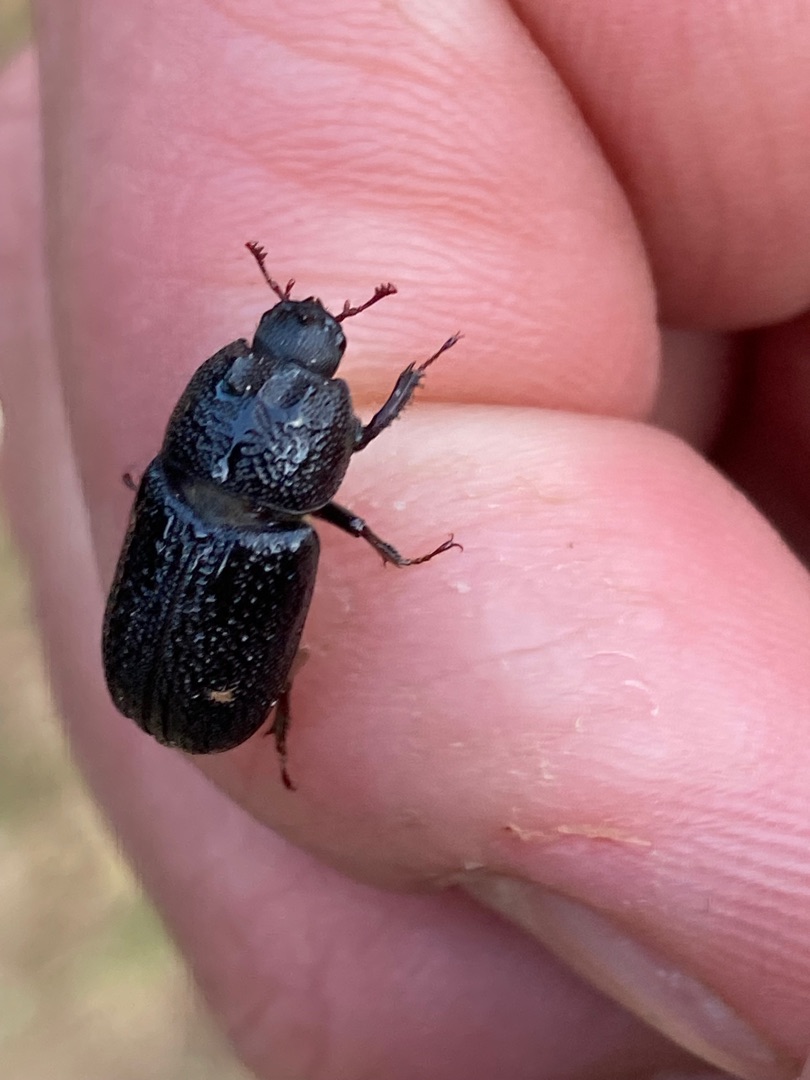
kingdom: Animalia
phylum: Arthropoda
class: Insecta
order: Coleoptera
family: Lucanidae
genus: Sinodendron
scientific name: Sinodendron cylindricum
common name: Valsehjort
